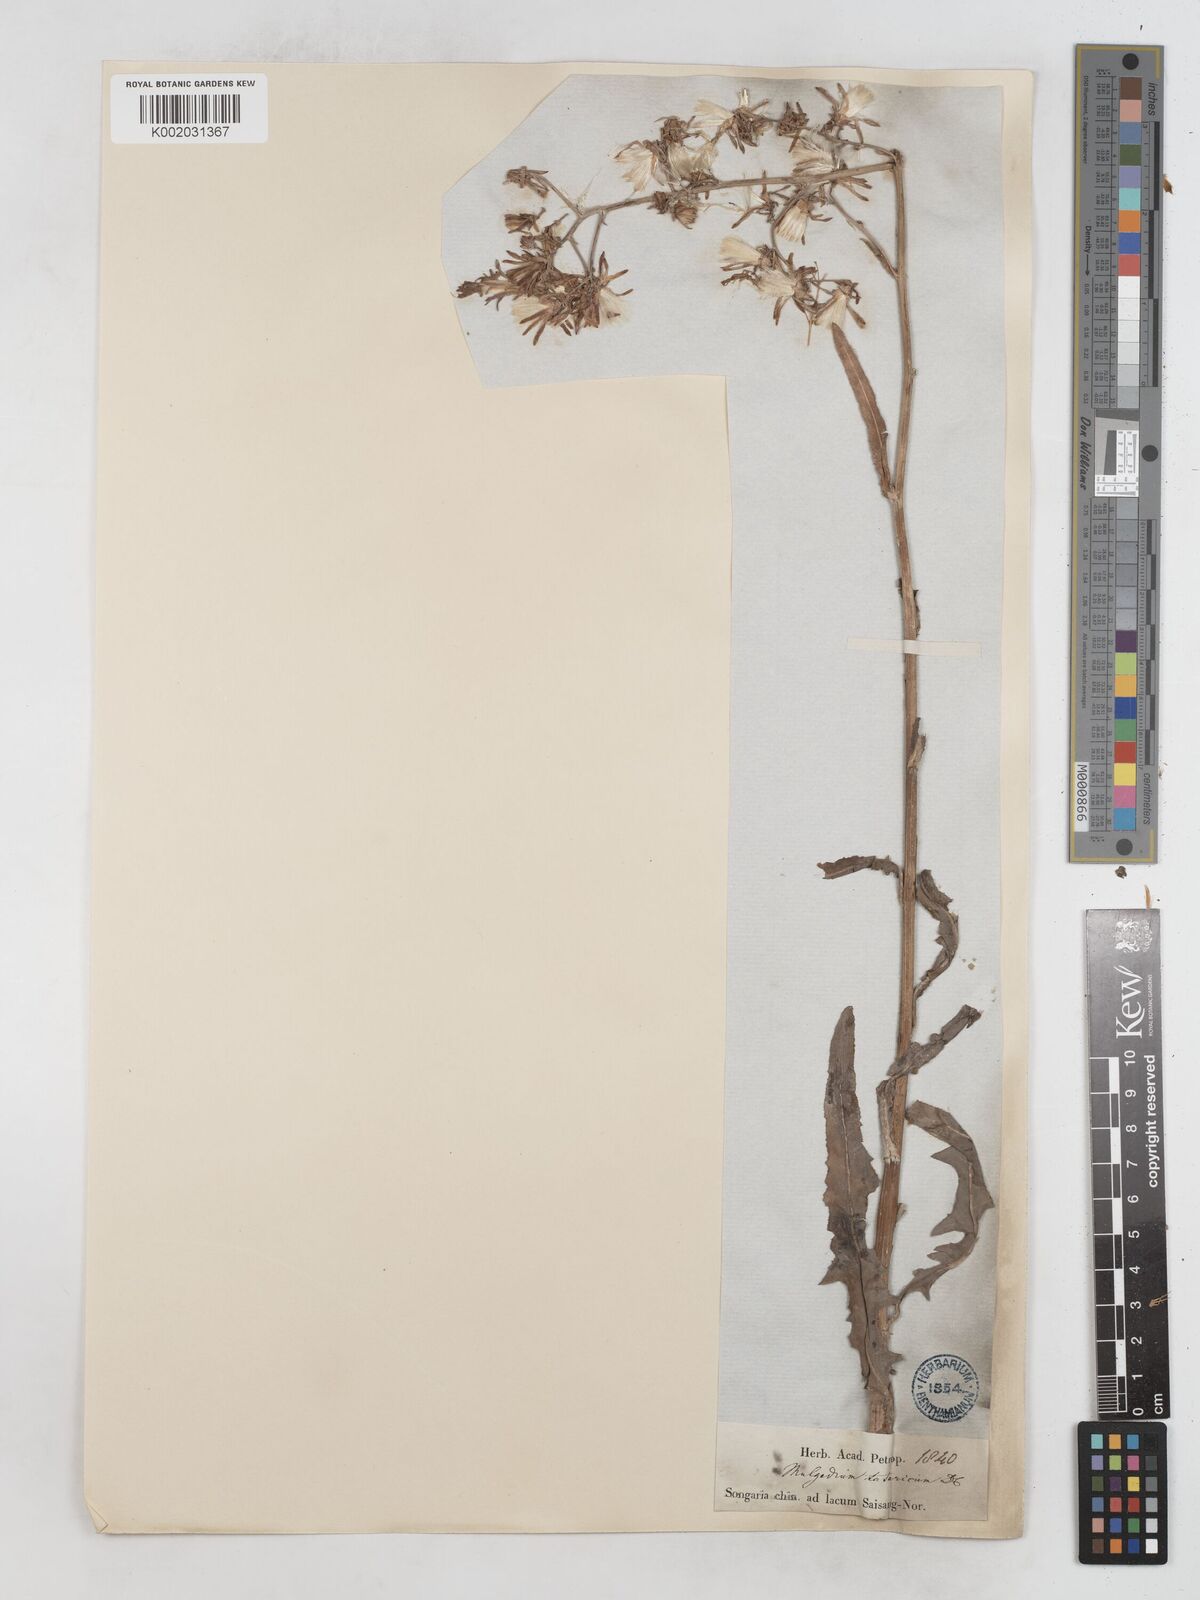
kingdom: Plantae
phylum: Tracheophyta
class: Magnoliopsida
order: Asterales
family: Asteraceae
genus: Lactuca
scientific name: Lactuca tatarica
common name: Blue lettuce
